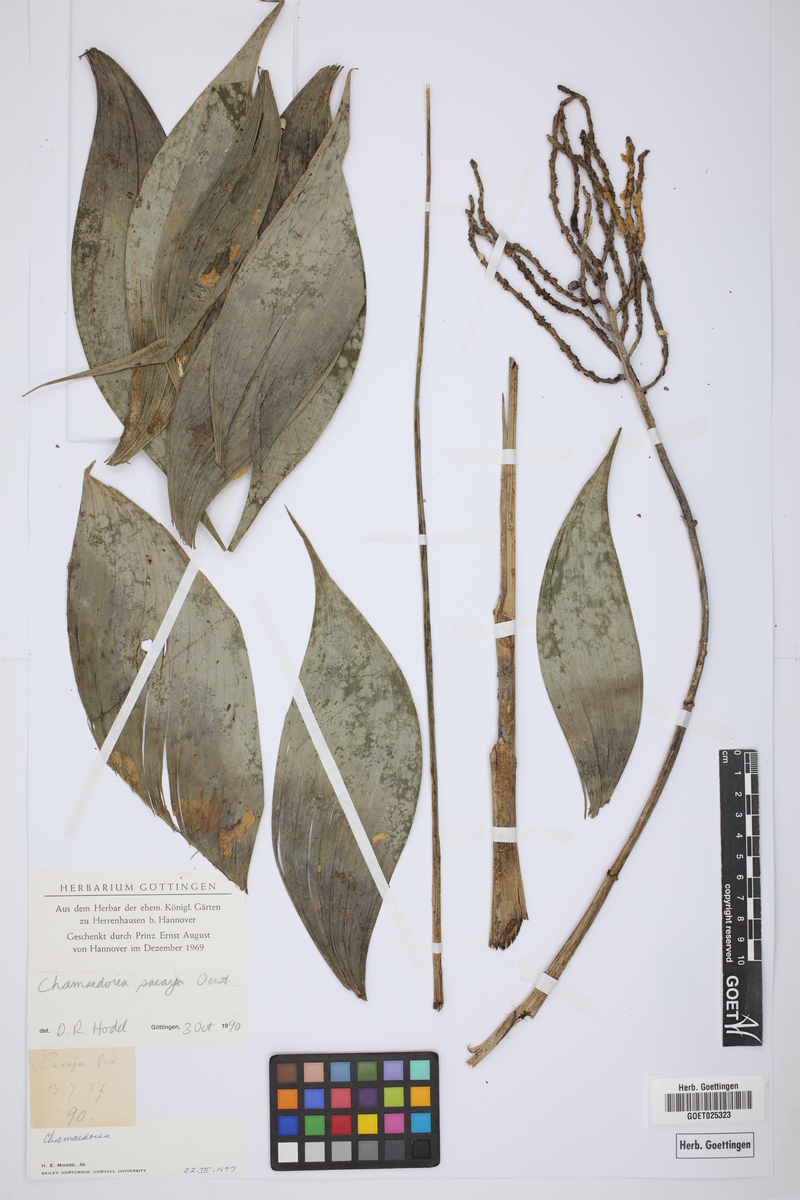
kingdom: Plantae
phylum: Tracheophyta
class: Liliopsida
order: Arecales
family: Arecaceae
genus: Chamaedorea
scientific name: Chamaedorea pinnatifrons
